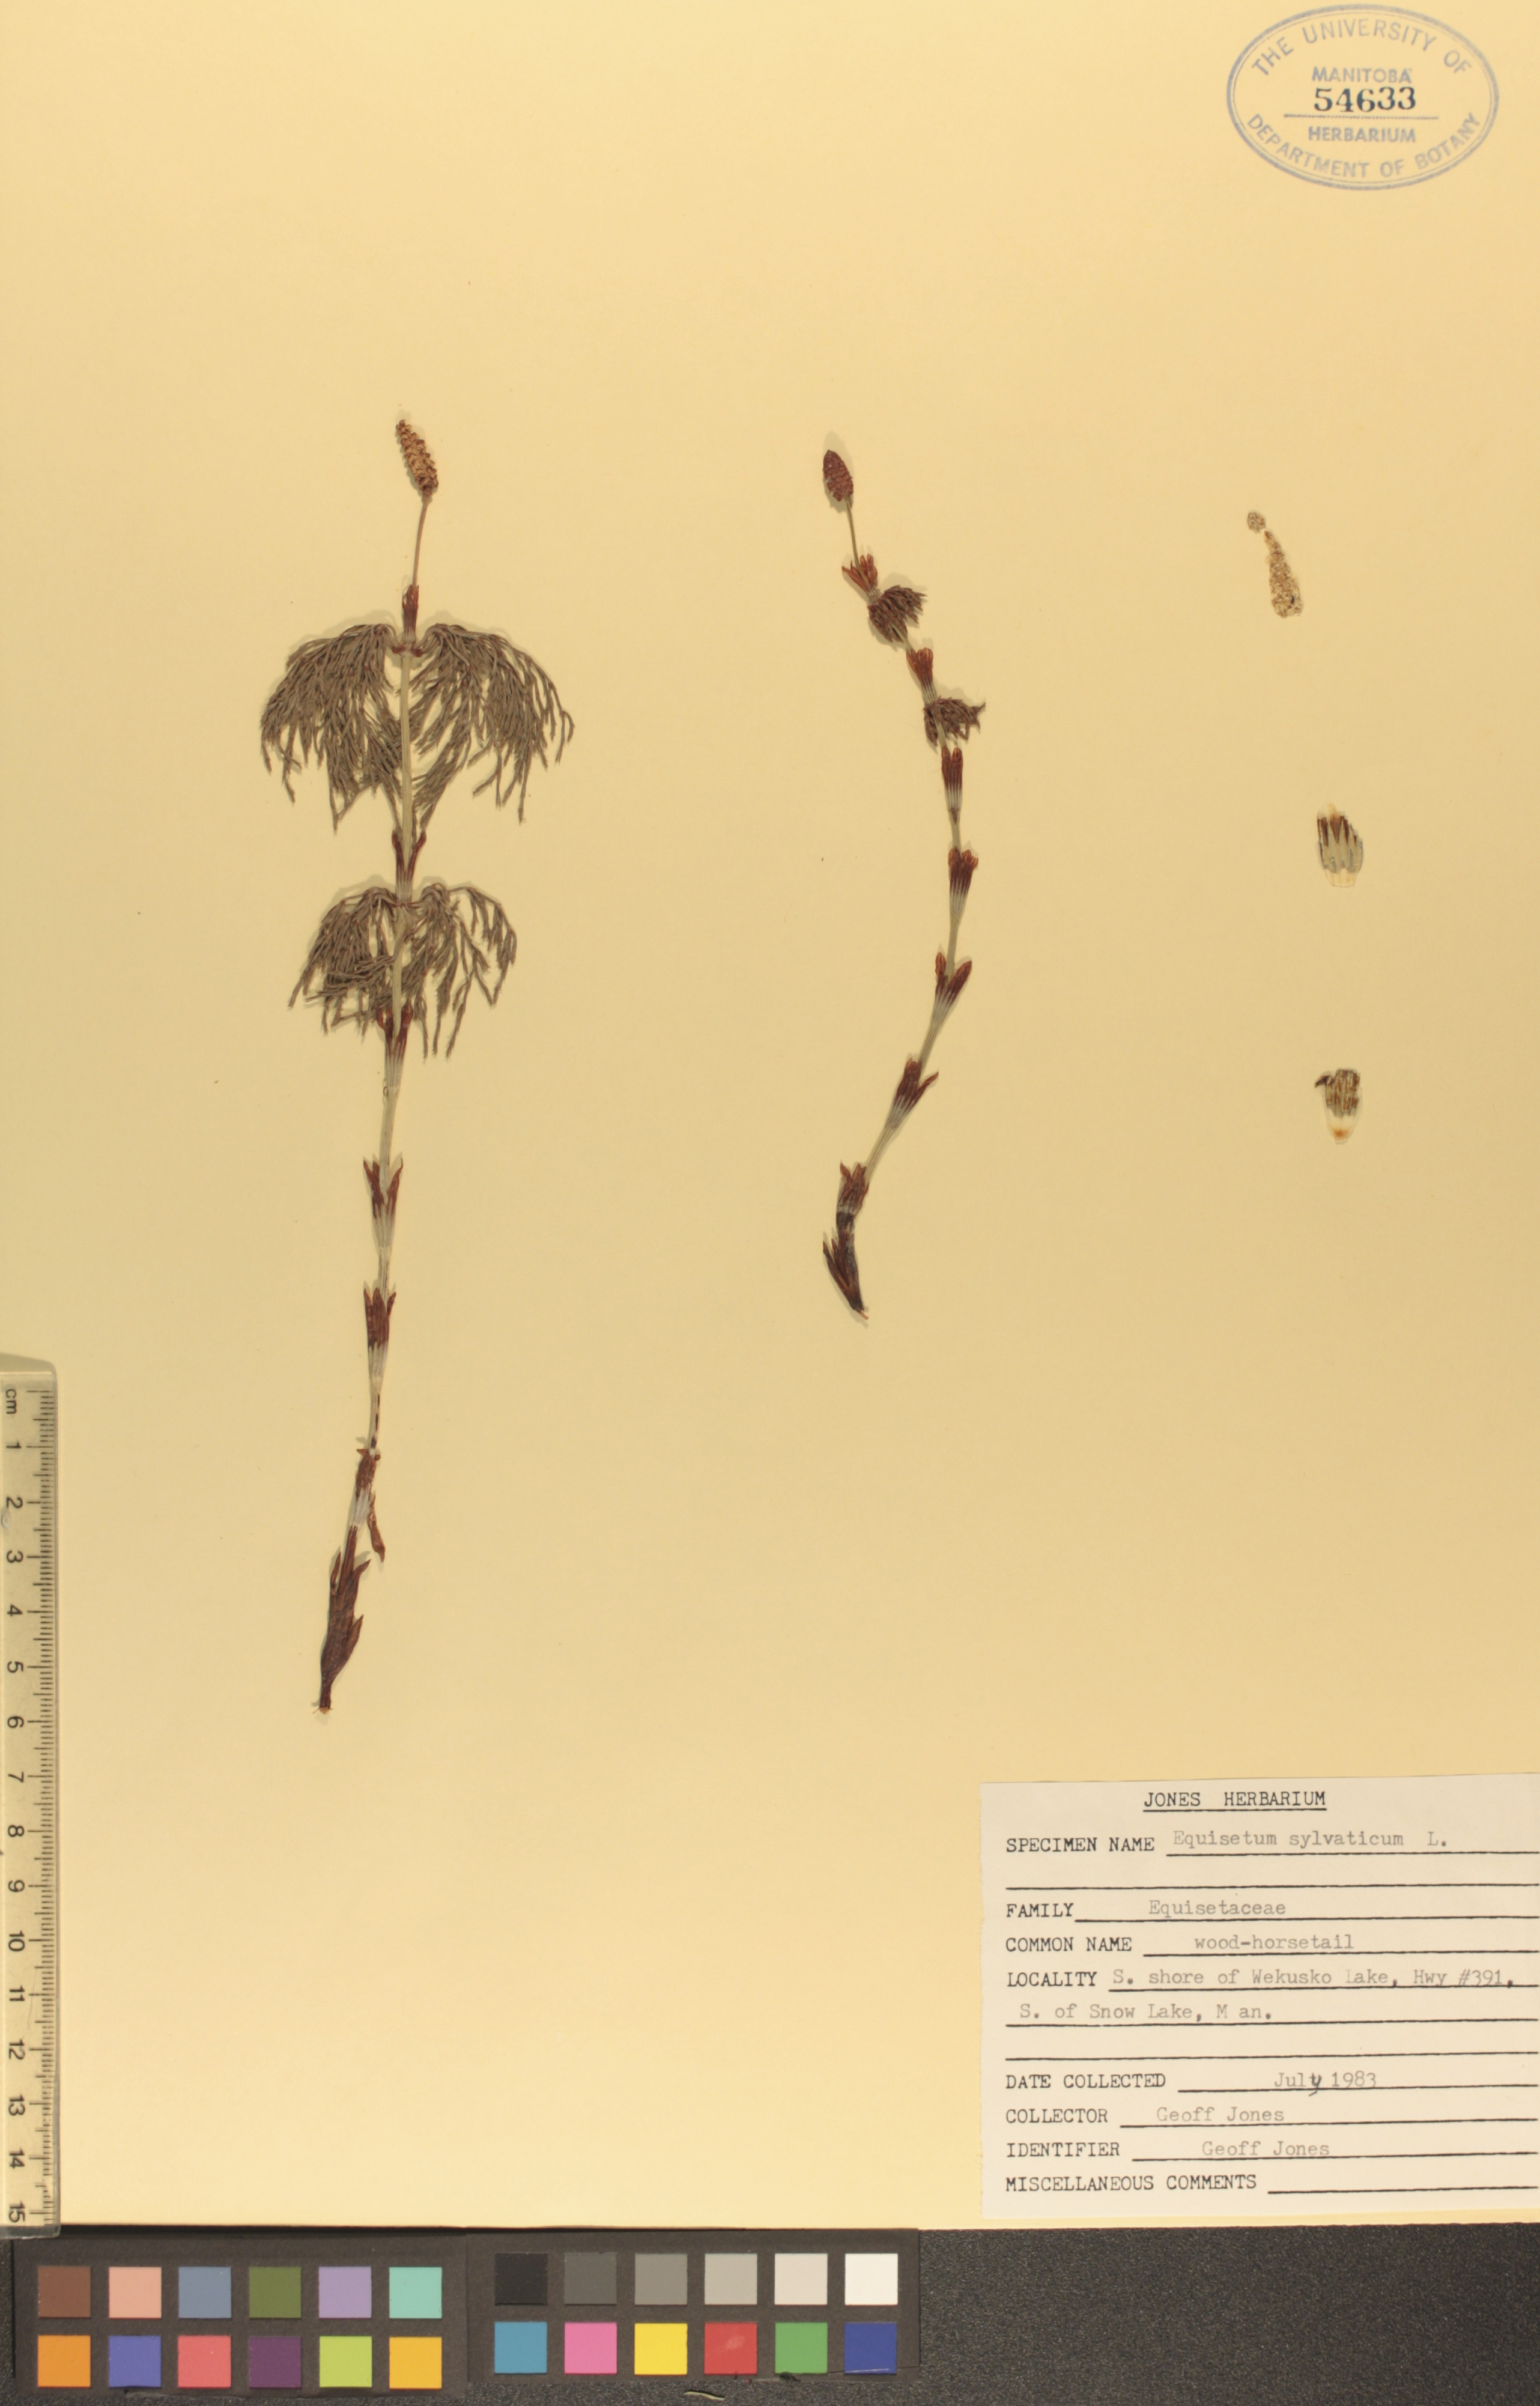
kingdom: Plantae
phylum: Tracheophyta
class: Polypodiopsida
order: Equisetales
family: Equisetaceae
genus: Equisetum
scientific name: Equisetum sylvaticum
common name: Wood horsetail
